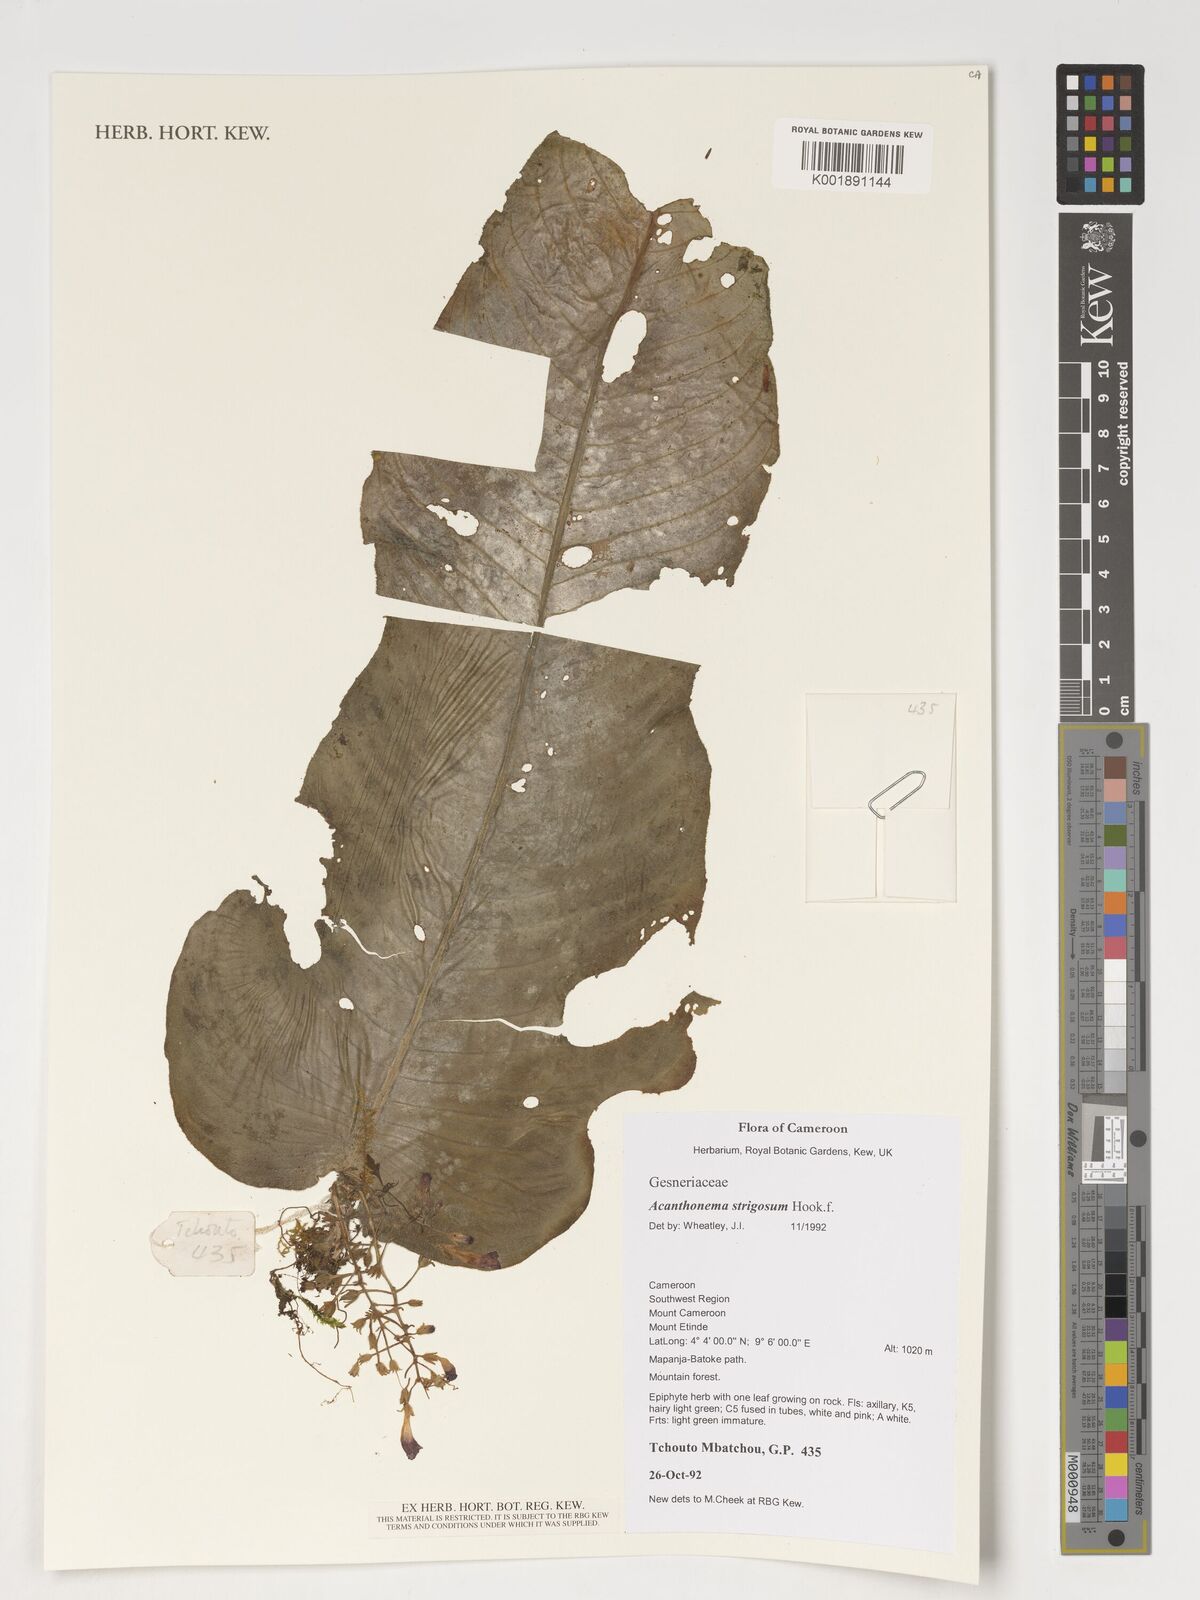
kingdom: Plantae
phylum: Tracheophyta
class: Magnoliopsida
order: Lamiales
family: Gesneriaceae
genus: Streptocarpus
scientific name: Streptocarpus strigosus
